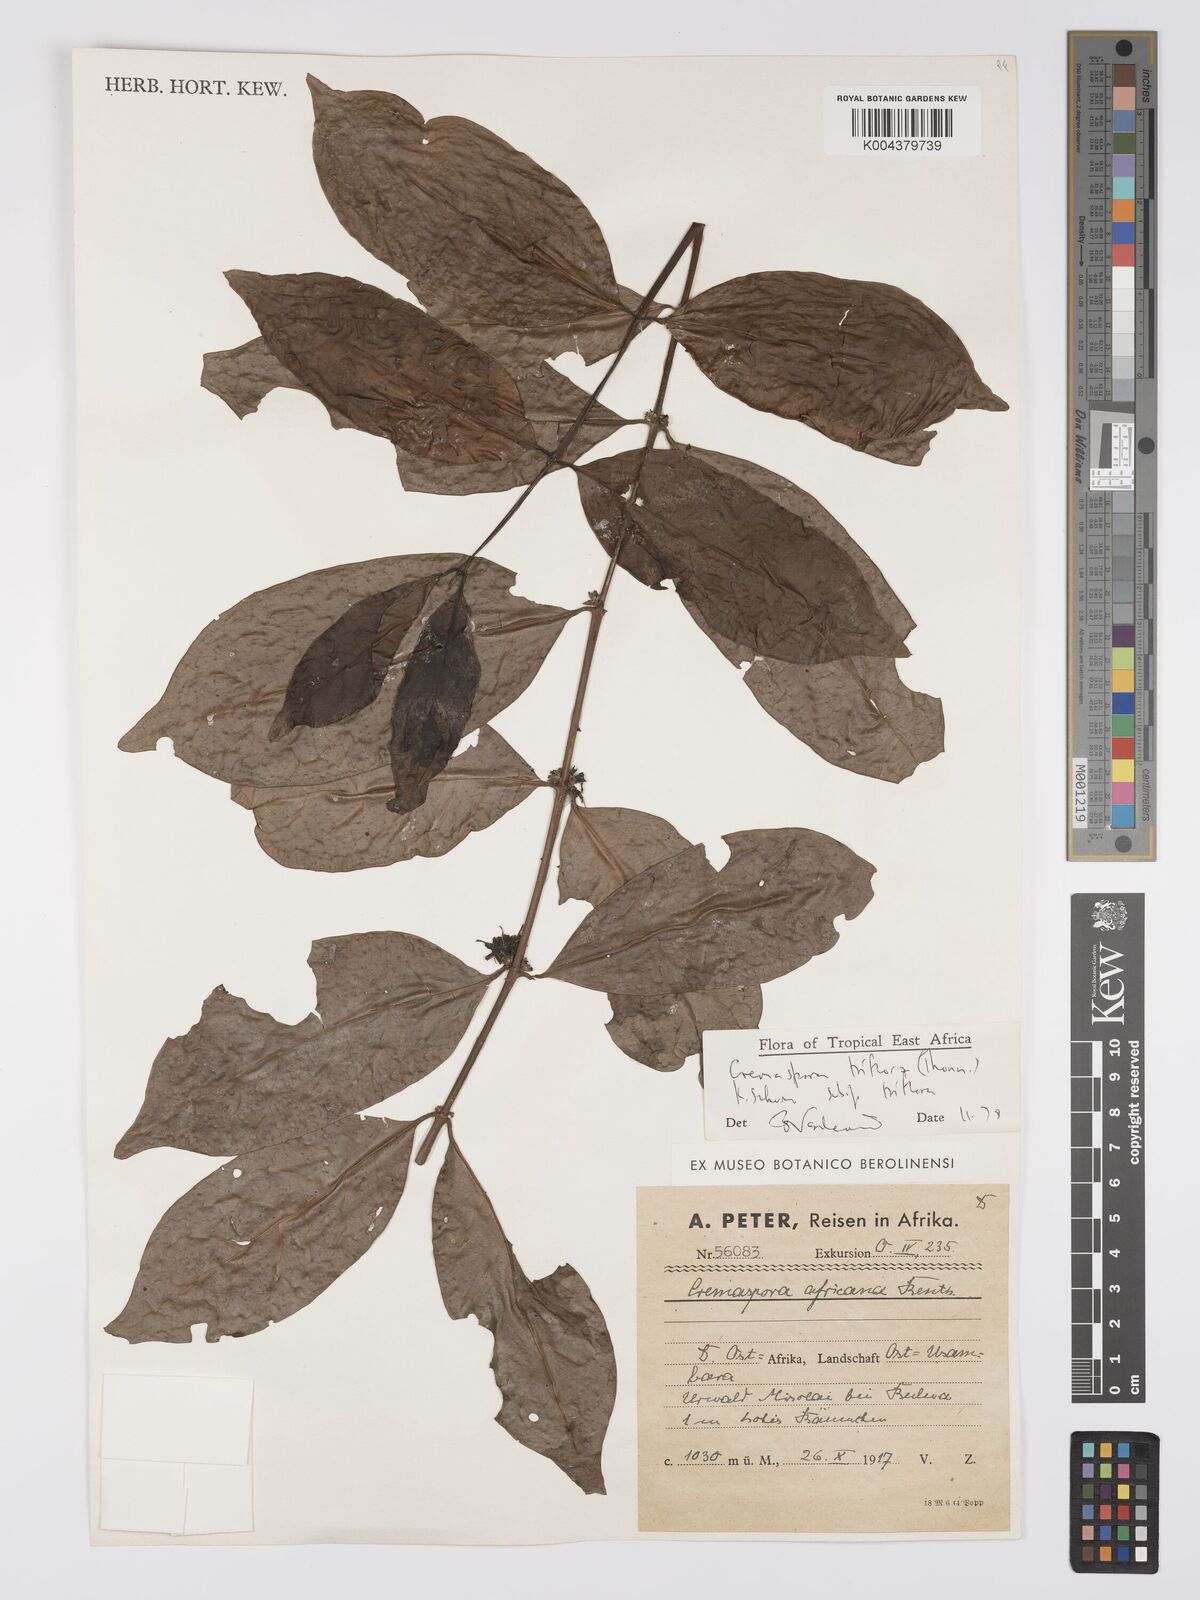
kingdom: Plantae
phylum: Tracheophyta
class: Magnoliopsida
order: Gentianales
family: Rubiaceae
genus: Cremaspora
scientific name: Cremaspora triflora
